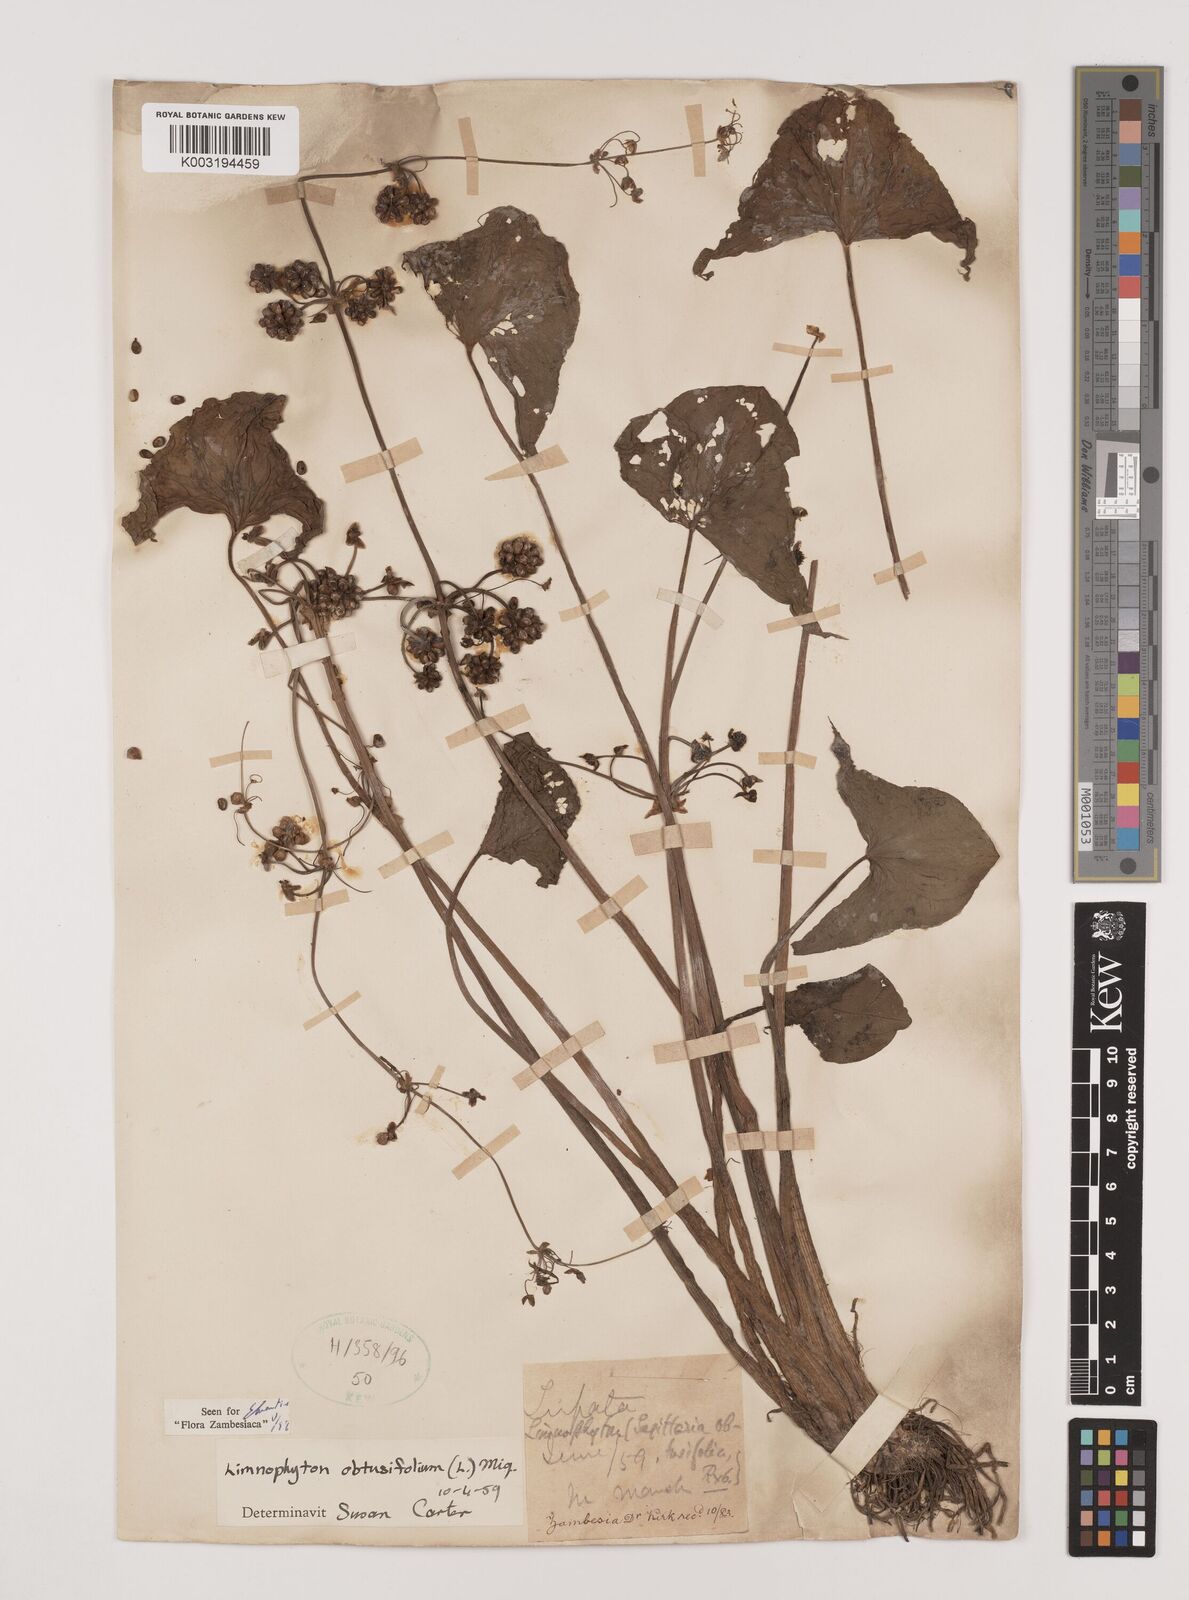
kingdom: Plantae
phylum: Tracheophyta
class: Liliopsida
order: Alismatales
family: Alismataceae
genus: Limnophyton
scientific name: Limnophyton obtusifolium
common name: Arrow head
